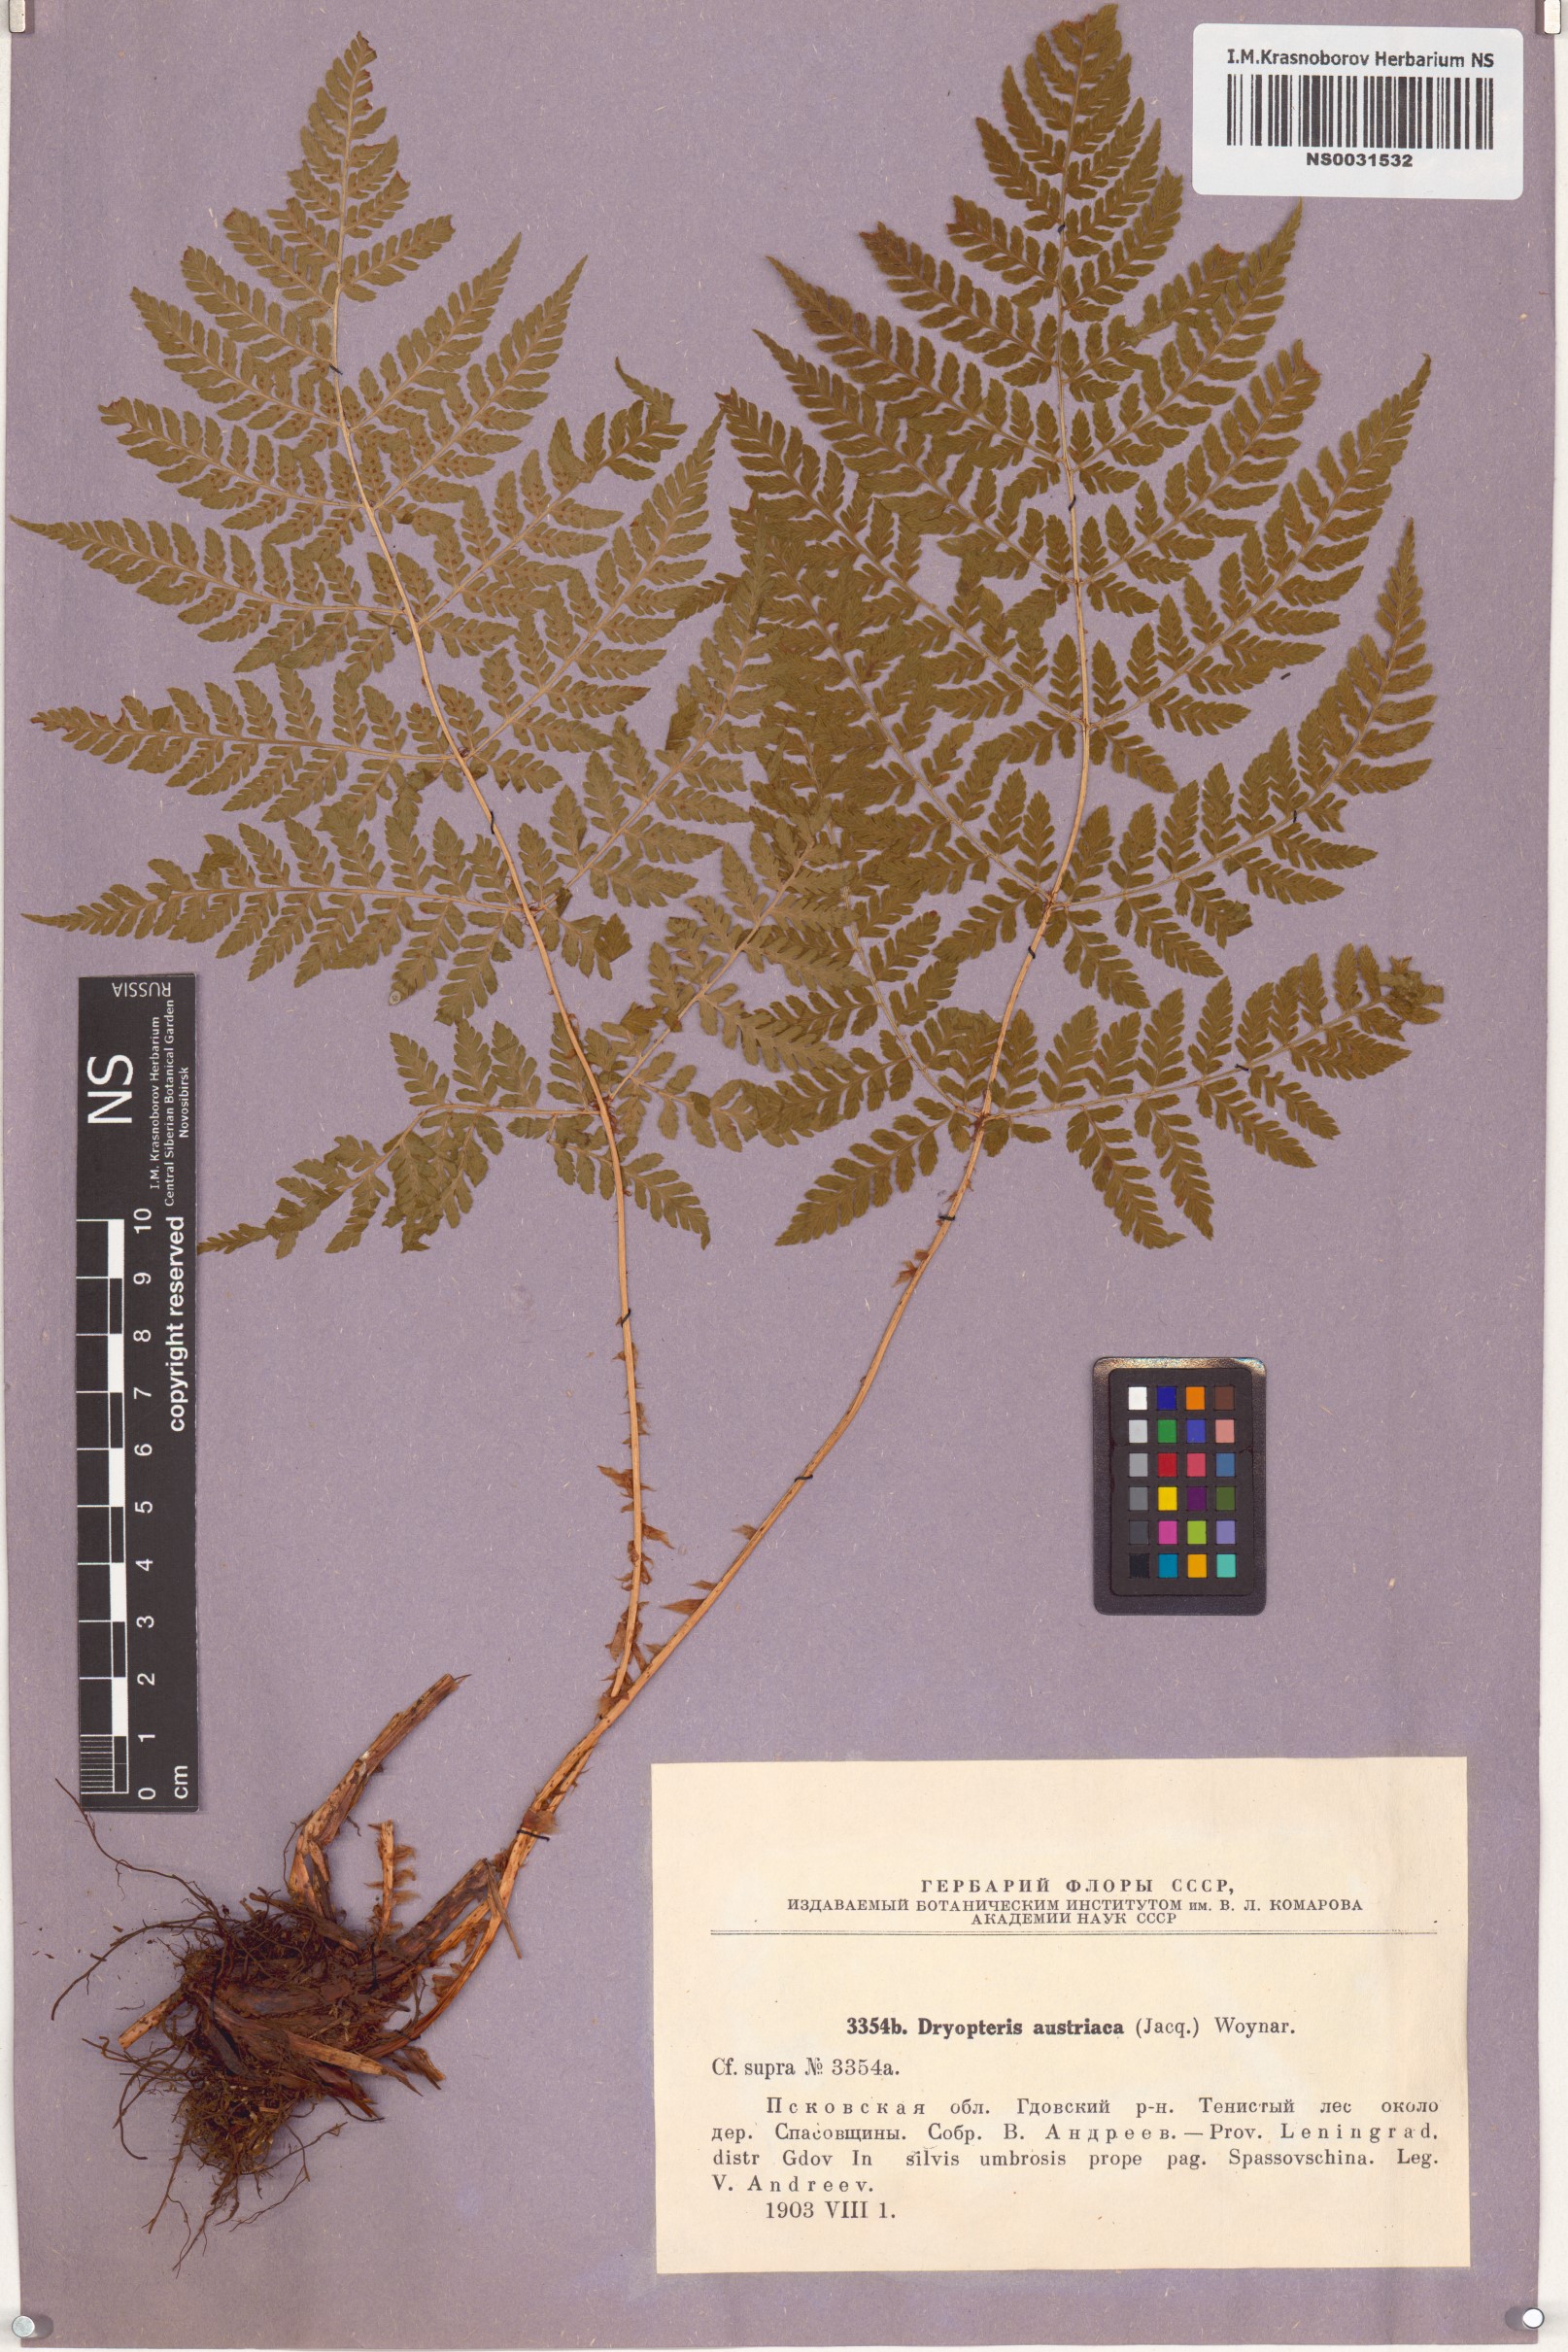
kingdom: Plantae
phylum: Tracheophyta
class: Polypodiopsida
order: Polypodiales
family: Dryopteridaceae
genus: Dryopteris
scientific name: Dryopteris dilatata
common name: Broad buckler-fern
